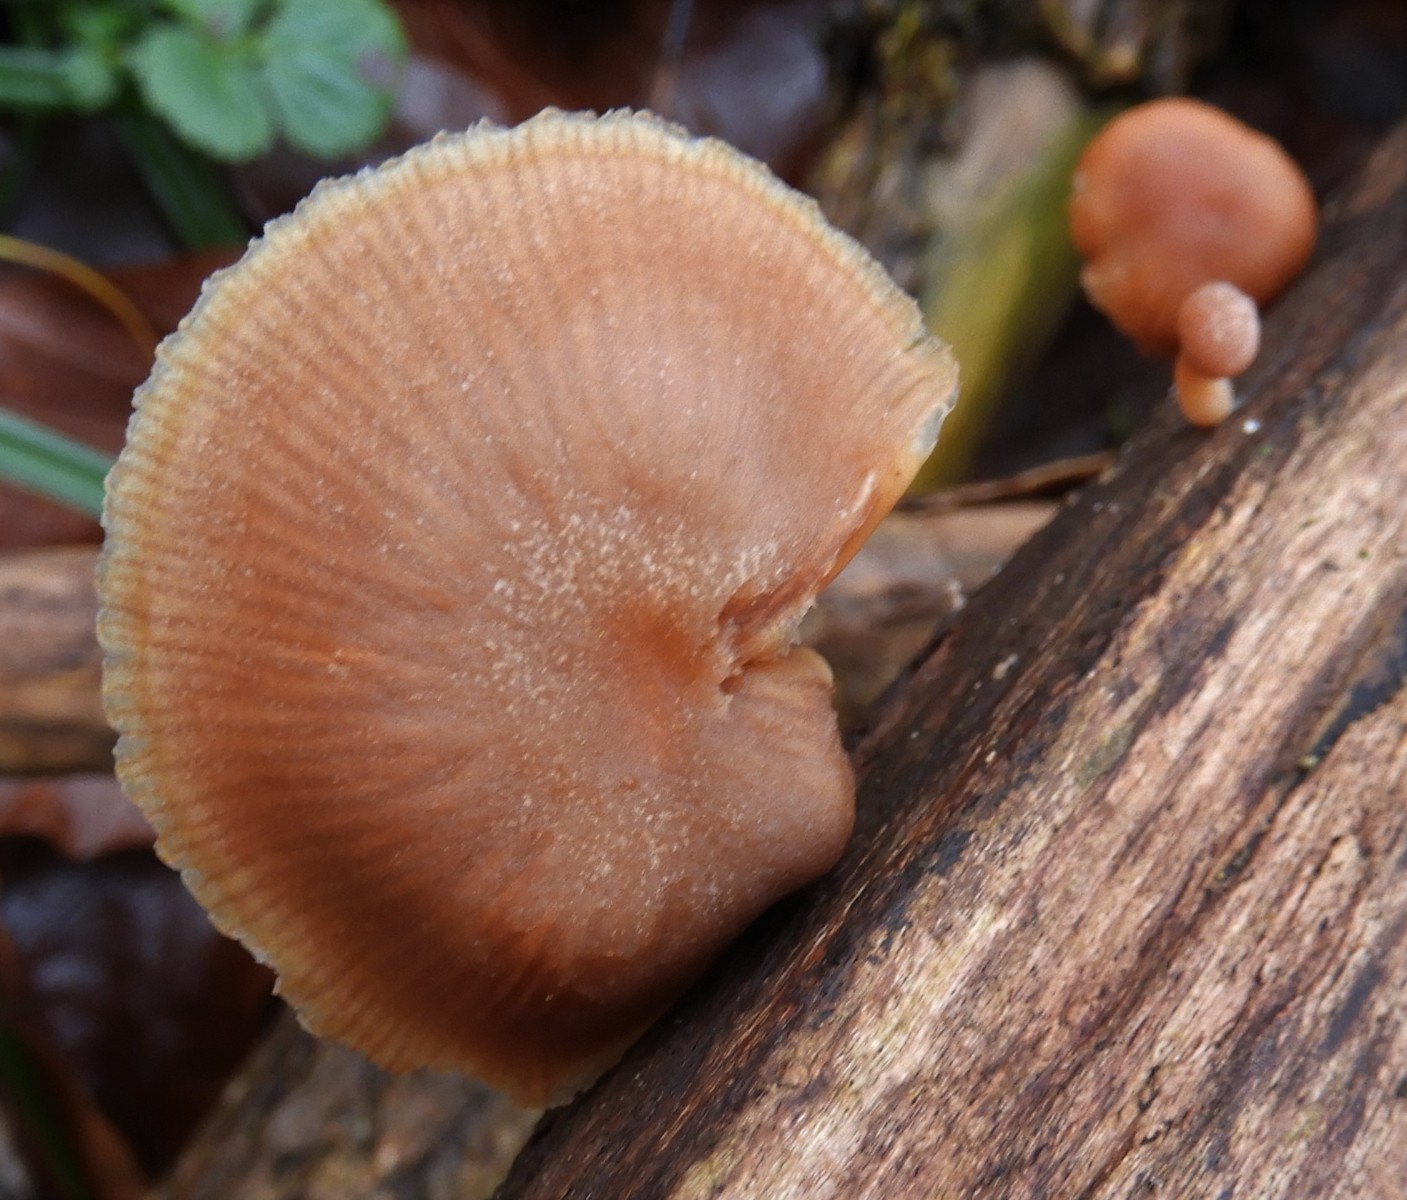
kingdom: Fungi
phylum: Basidiomycota
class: Agaricomycetes
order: Agaricales
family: Tubariaceae
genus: Tubaria
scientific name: Tubaria furfuracea
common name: kliddet fnughat
